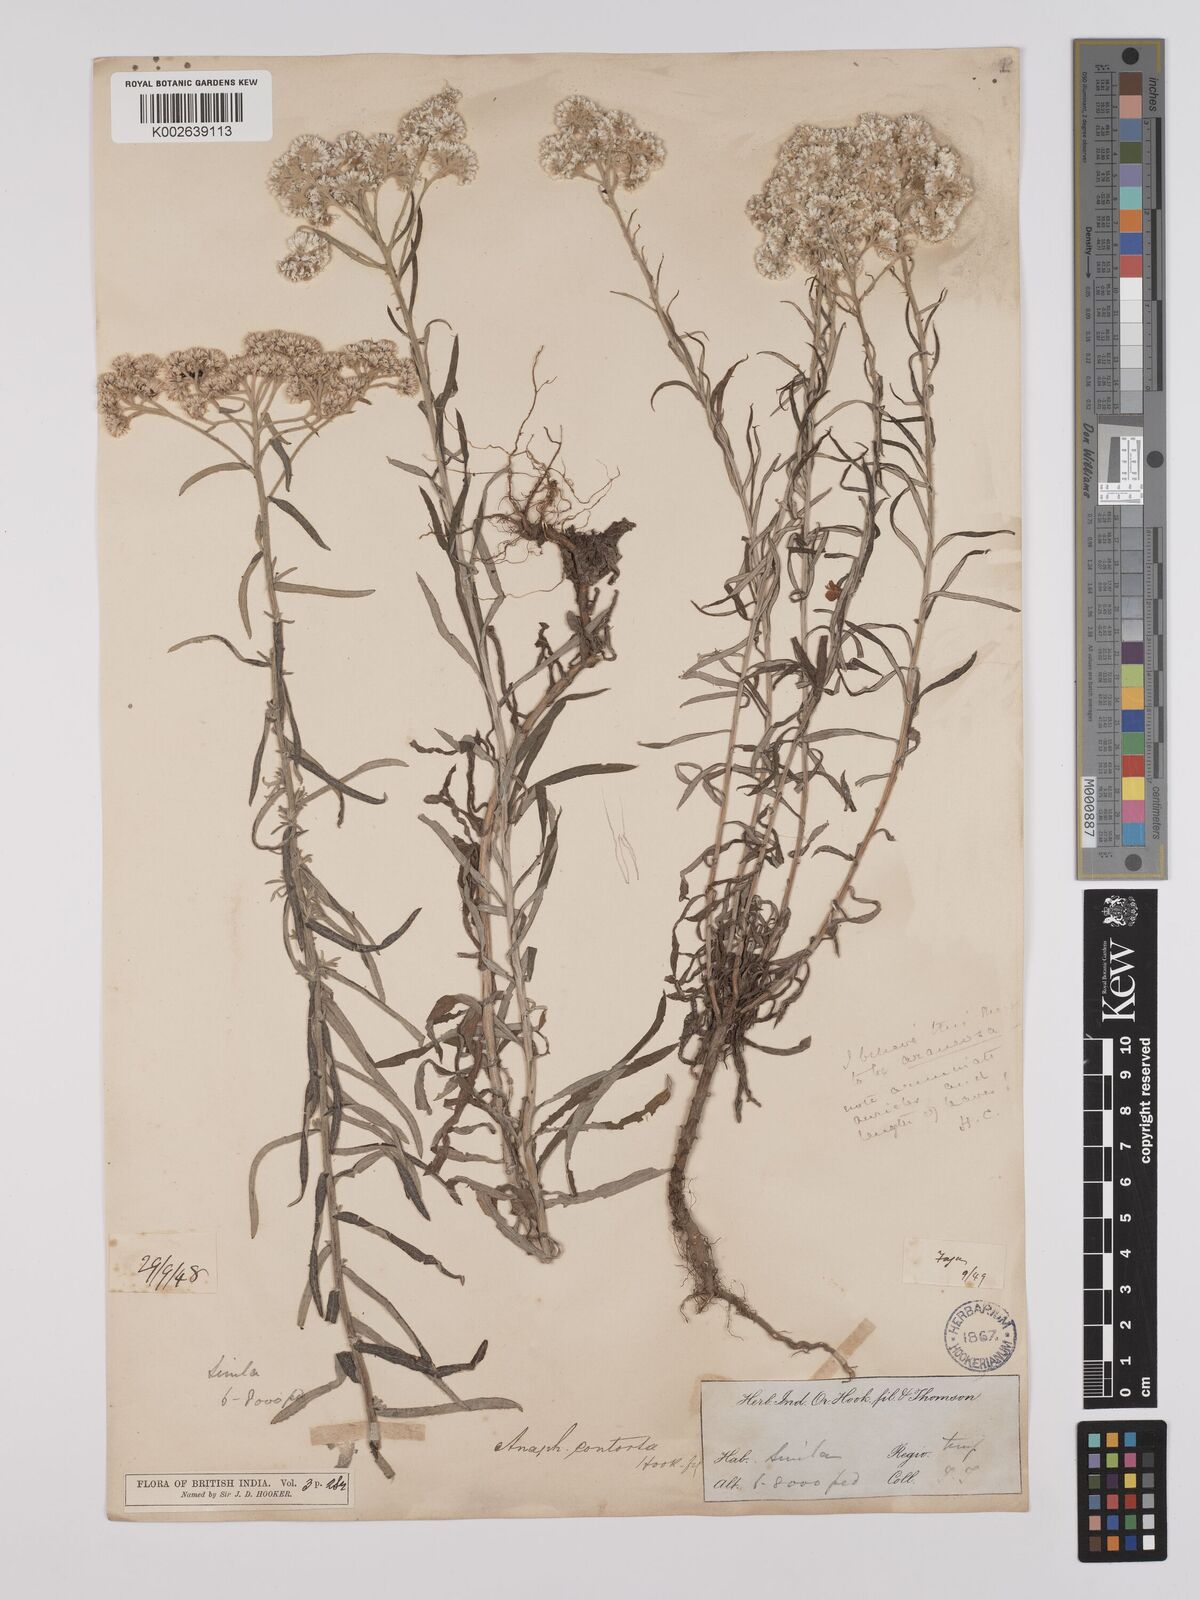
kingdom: Plantae
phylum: Tracheophyta
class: Magnoliopsida
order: Asterales
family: Asteraceae
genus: Anaphalis
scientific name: Anaphalis contorta
